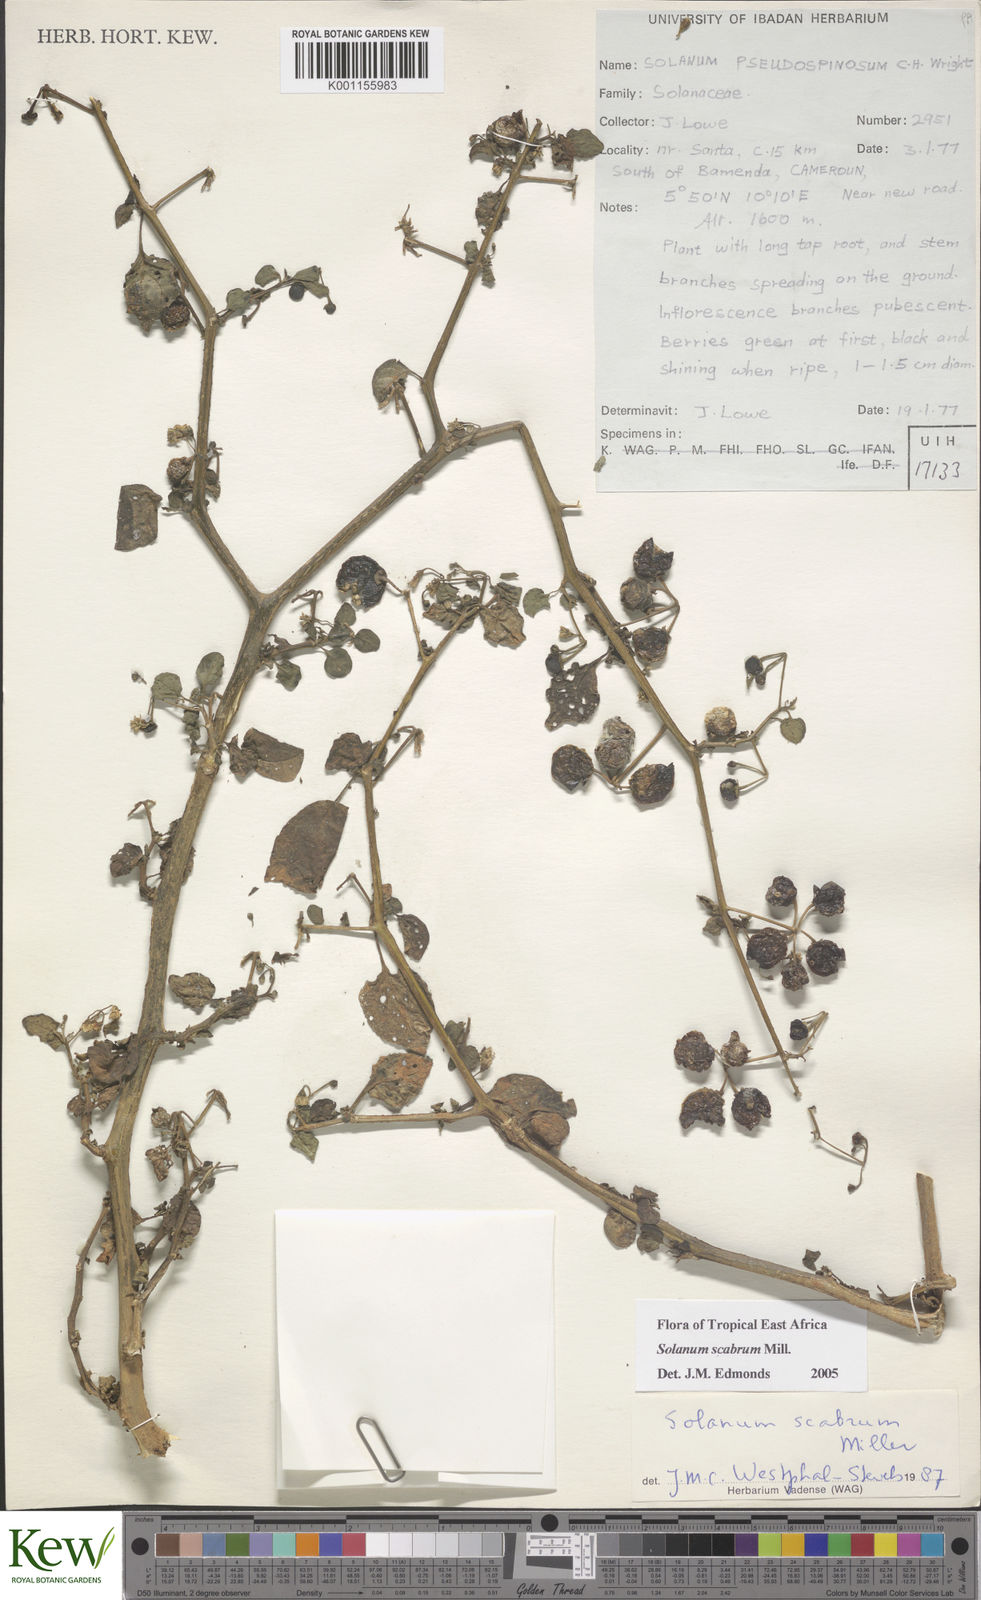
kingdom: Plantae
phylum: Tracheophyta
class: Magnoliopsida
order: Solanales
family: Solanaceae
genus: Solanum
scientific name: Solanum scabrum
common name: Garden-huckleberry
